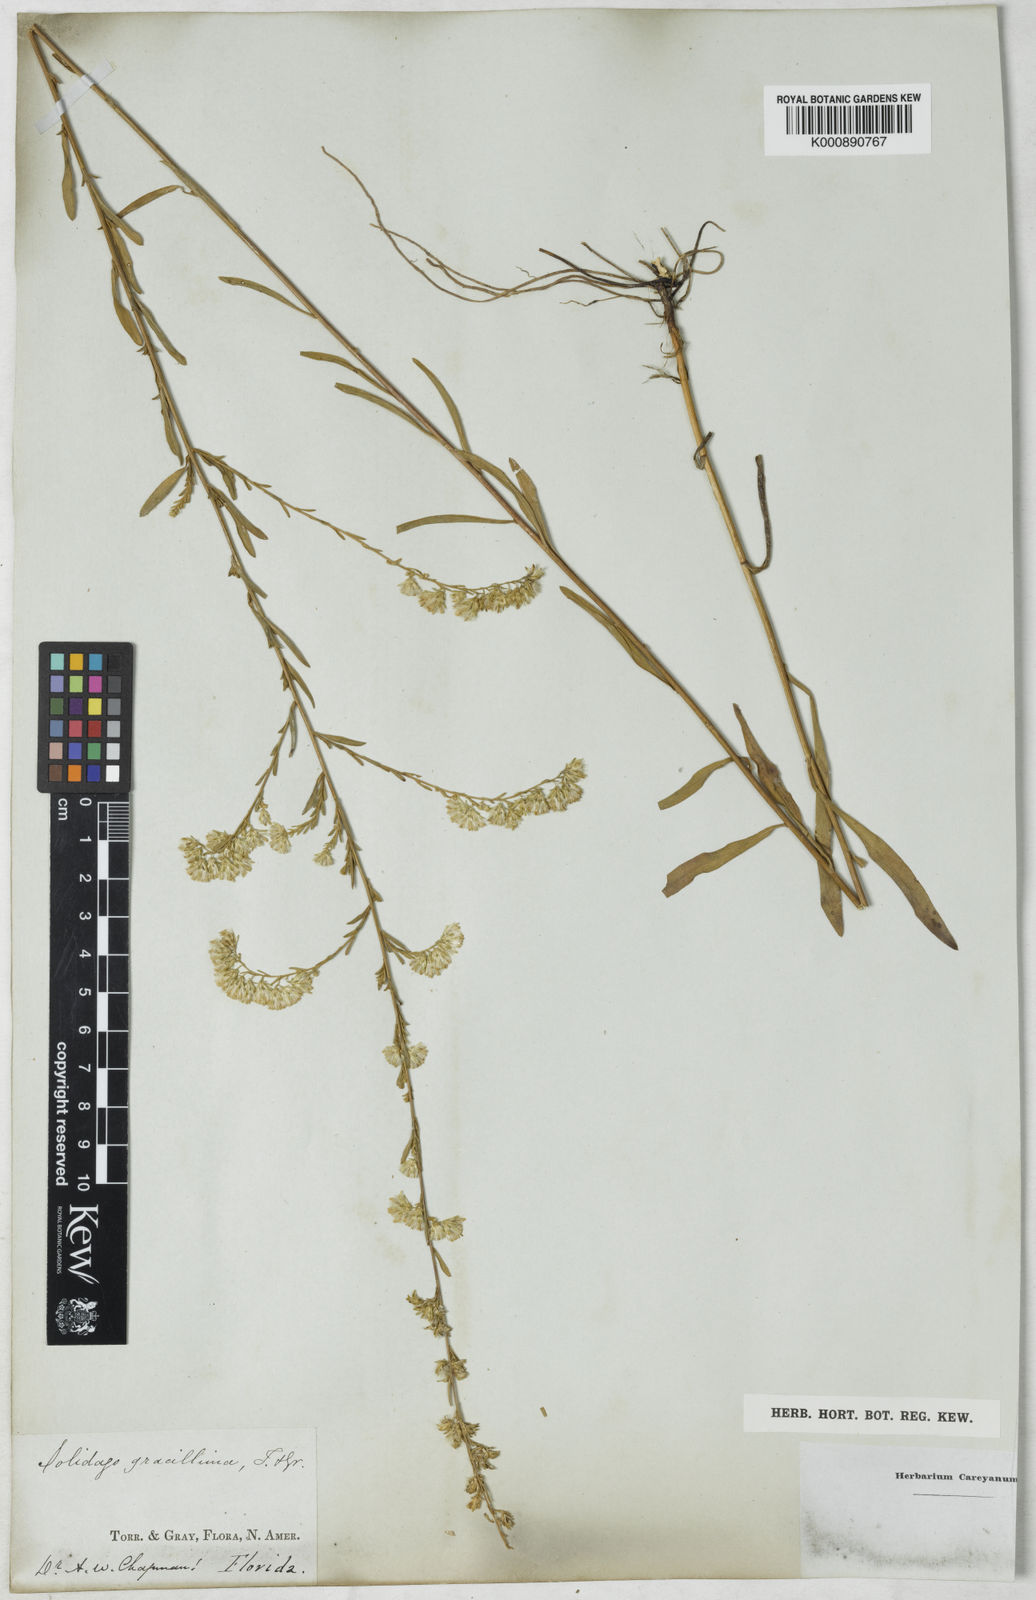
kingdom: Plantae
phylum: Tracheophyta
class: Magnoliopsida
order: Asterales
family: Asteraceae
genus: Solidago
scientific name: Solidago gracillima
